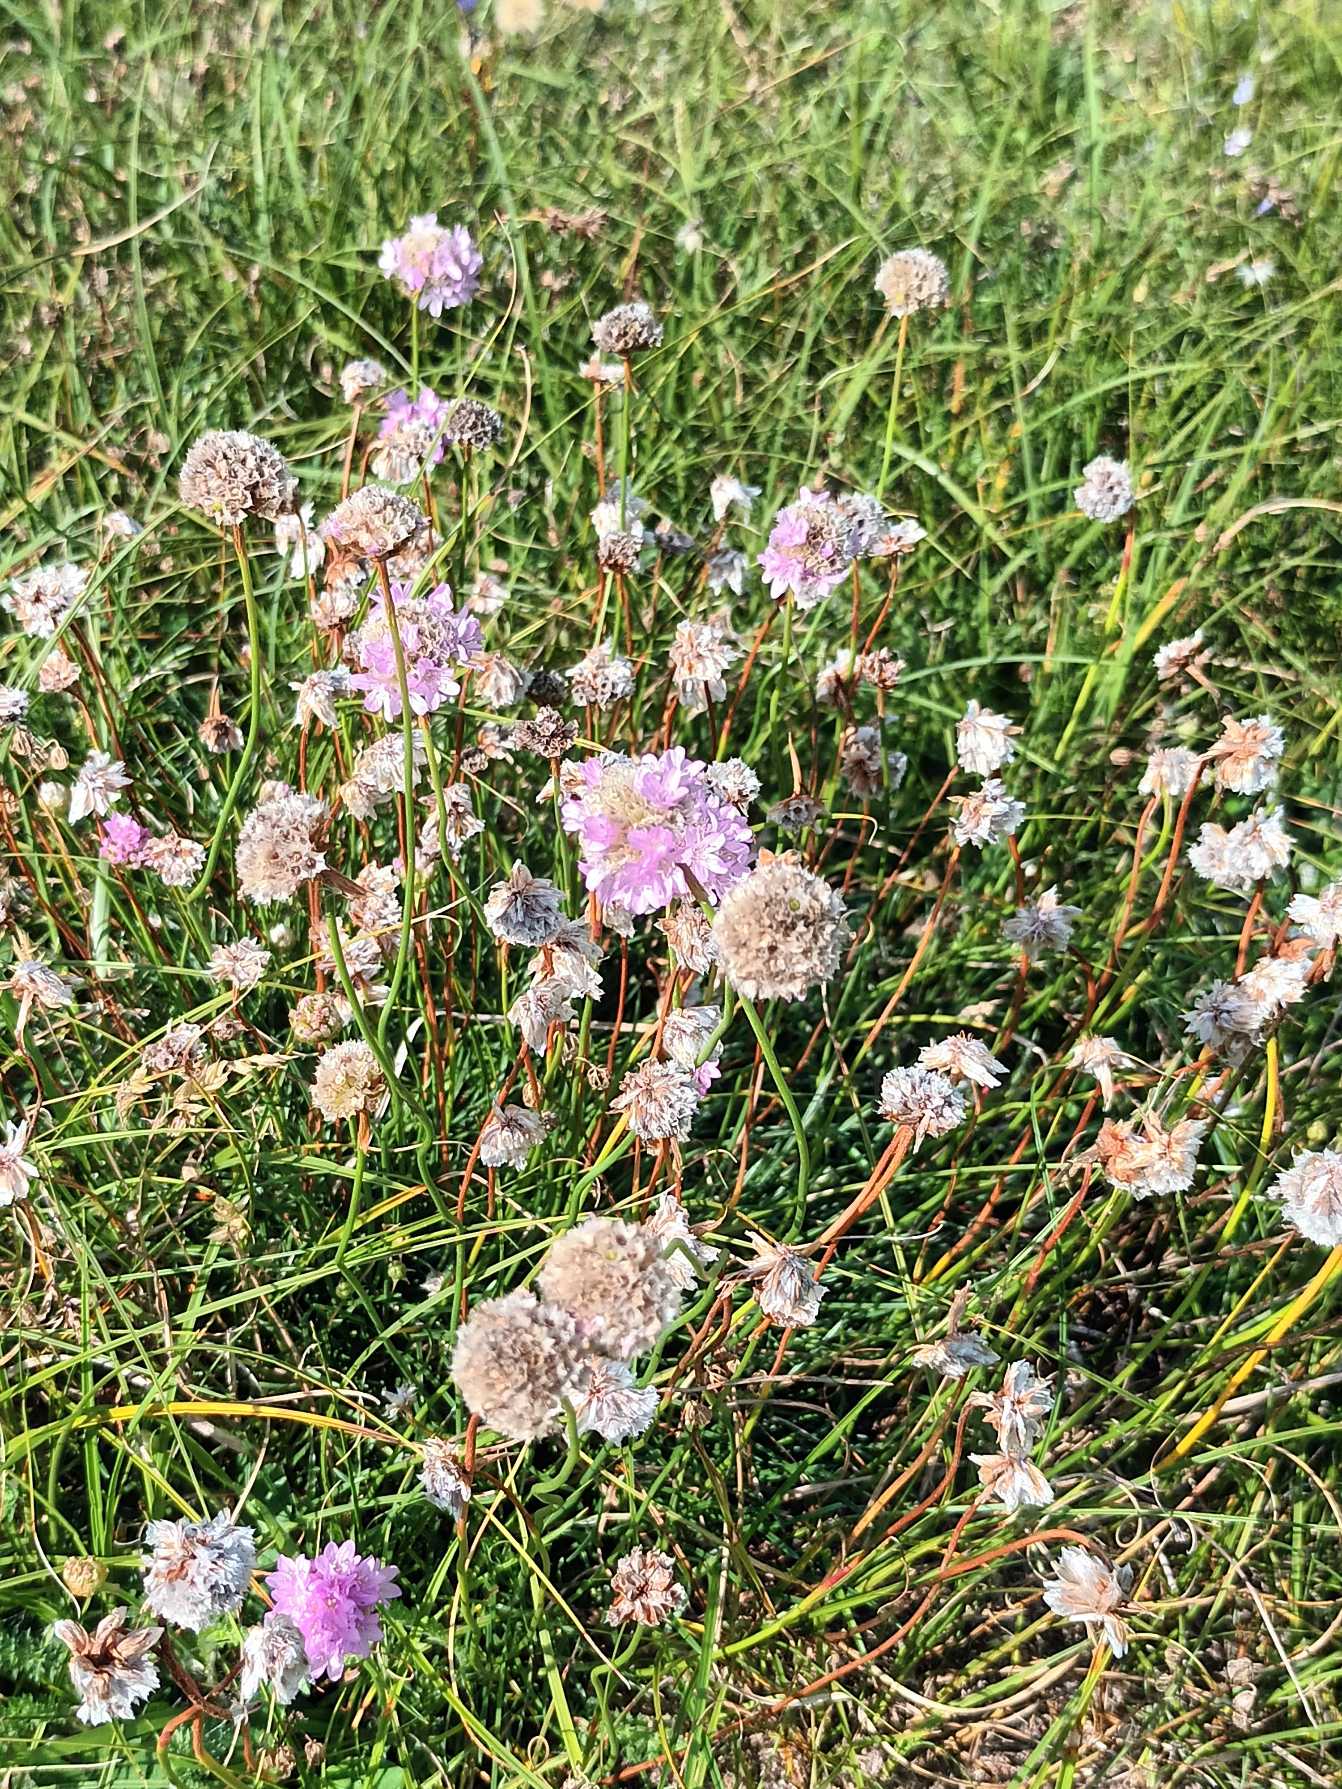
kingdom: Plantae
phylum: Tracheophyta
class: Magnoliopsida
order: Caryophyllales
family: Plumbaginaceae
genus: Armeria
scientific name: Armeria maritima
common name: Engelskgræs
